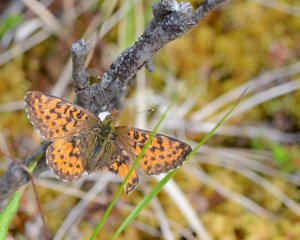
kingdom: Animalia
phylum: Arthropoda
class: Insecta
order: Lepidoptera
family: Nymphalidae
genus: Boloria
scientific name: Boloria chariclea
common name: Arctic Fritillary
